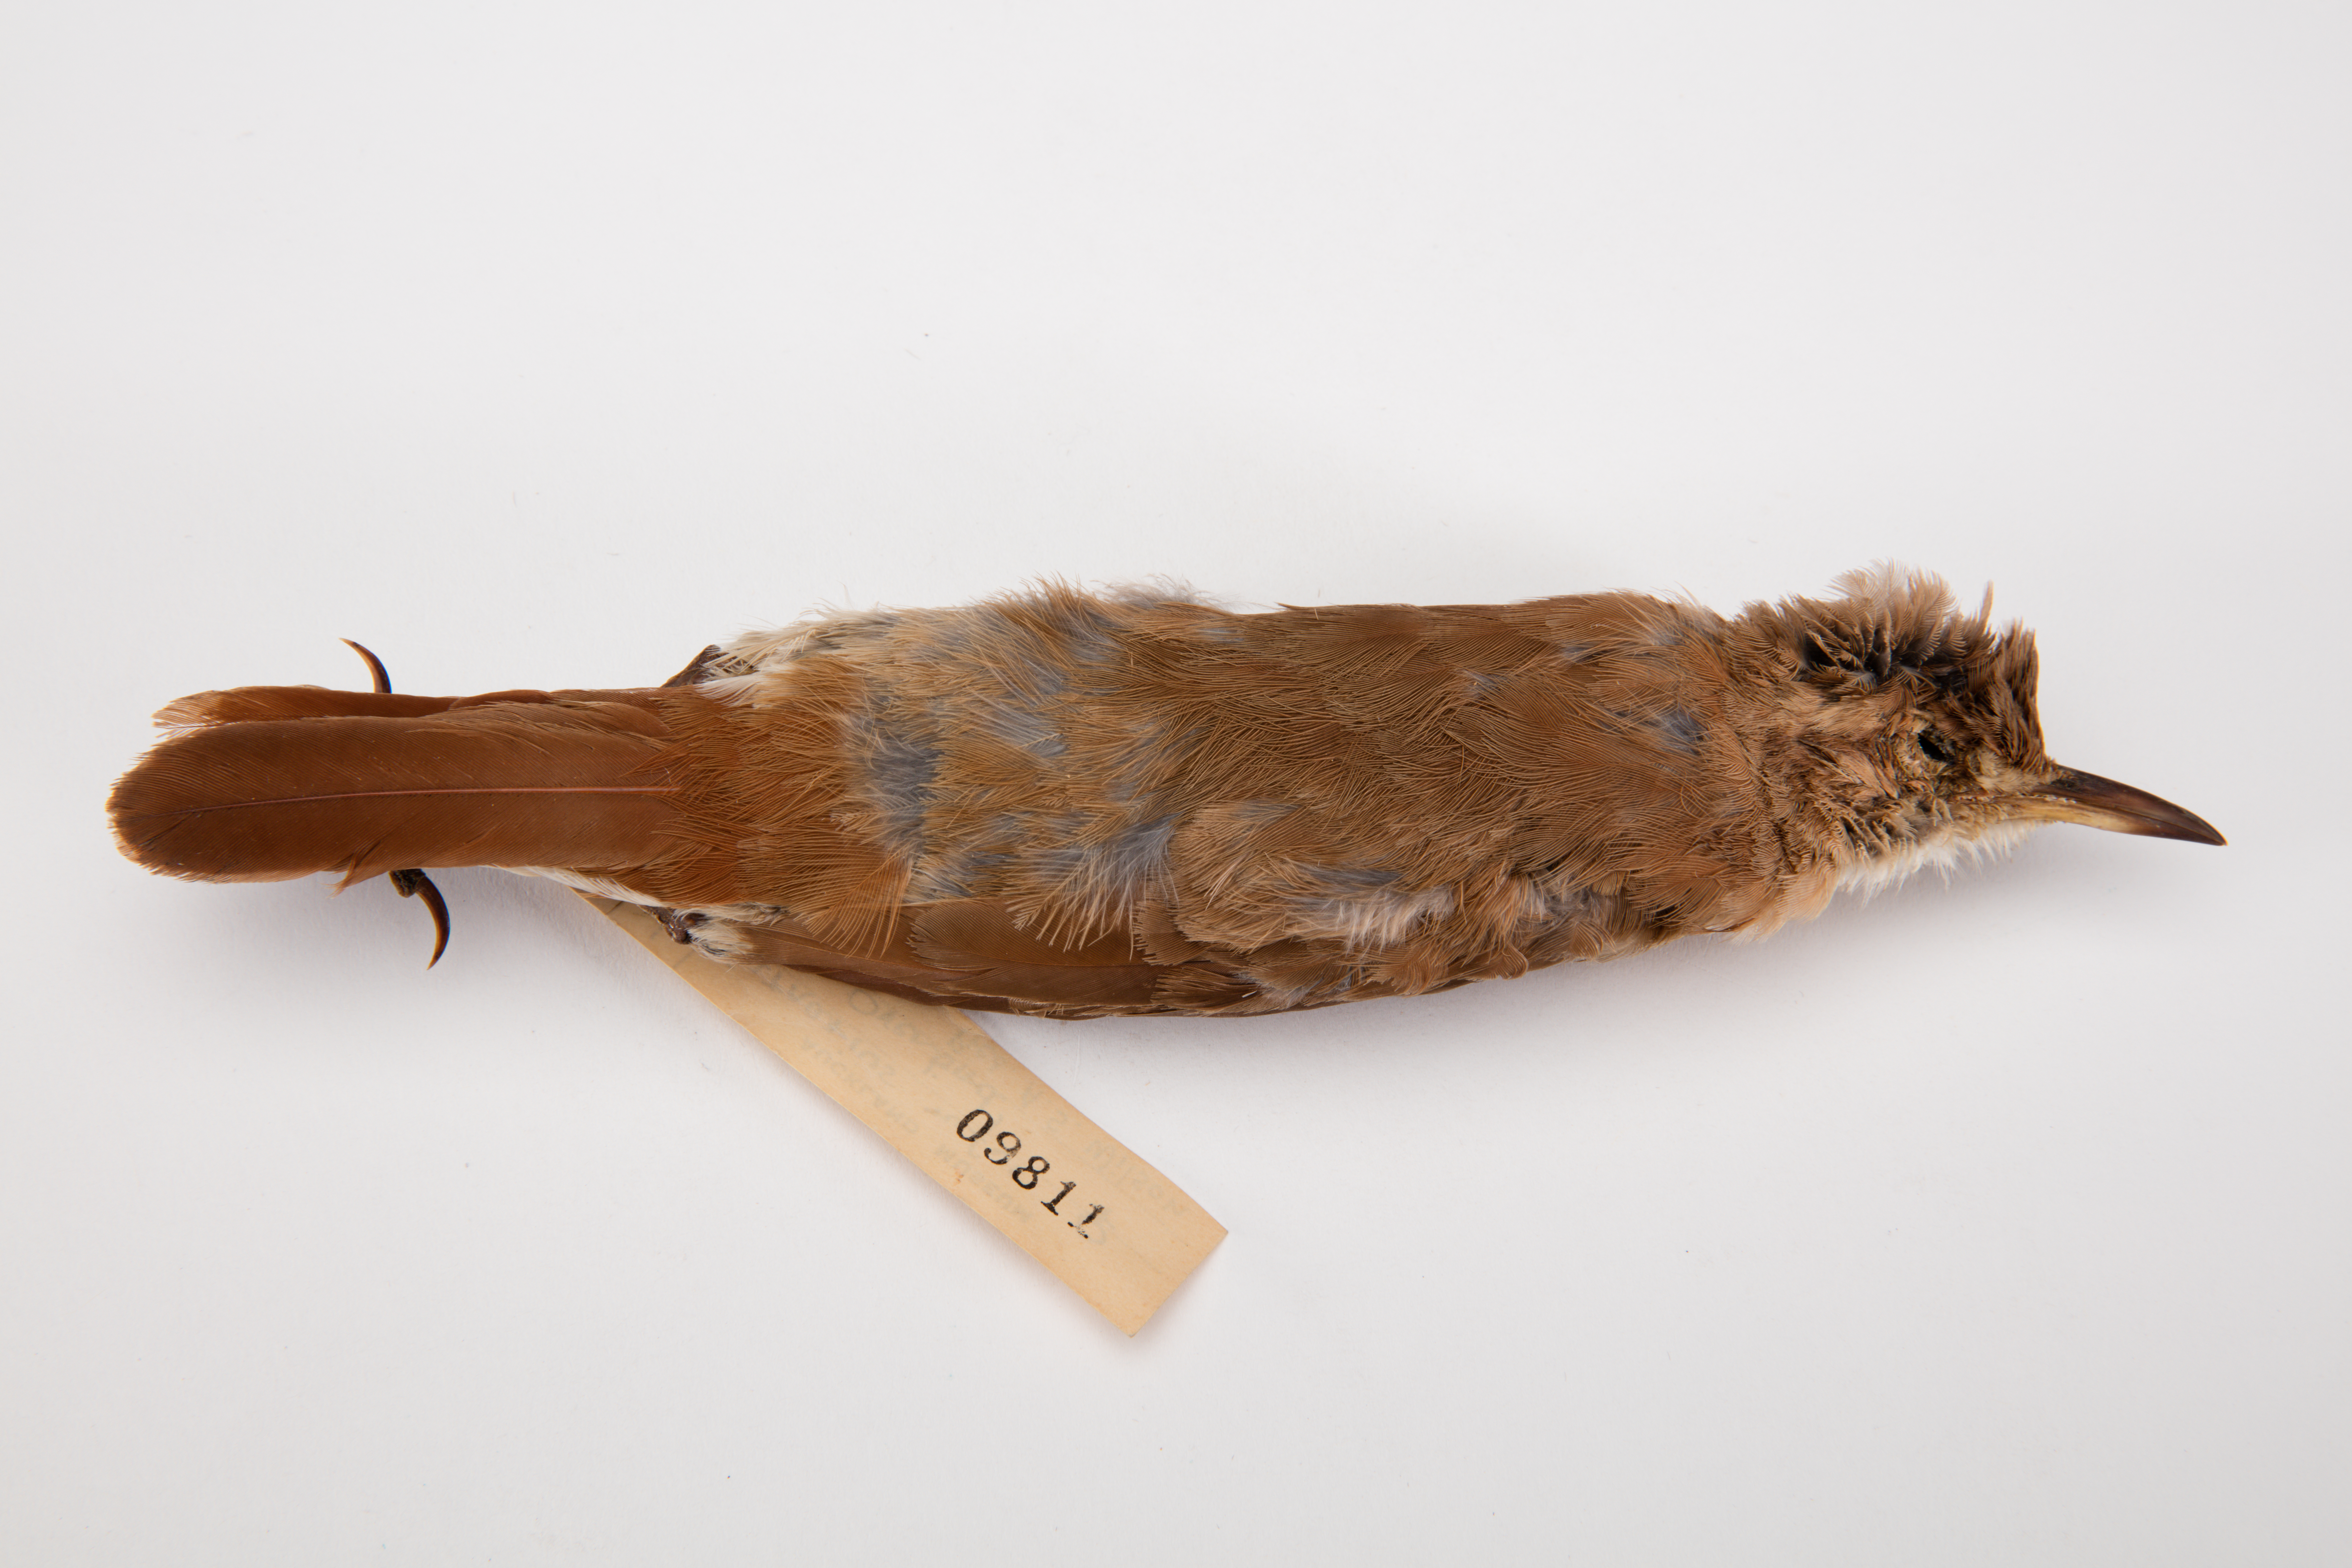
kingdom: Animalia
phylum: Chordata
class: Aves
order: Passeriformes
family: Furnariidae
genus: Furnarius
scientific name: Furnarius rufus
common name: Rufous hornero
